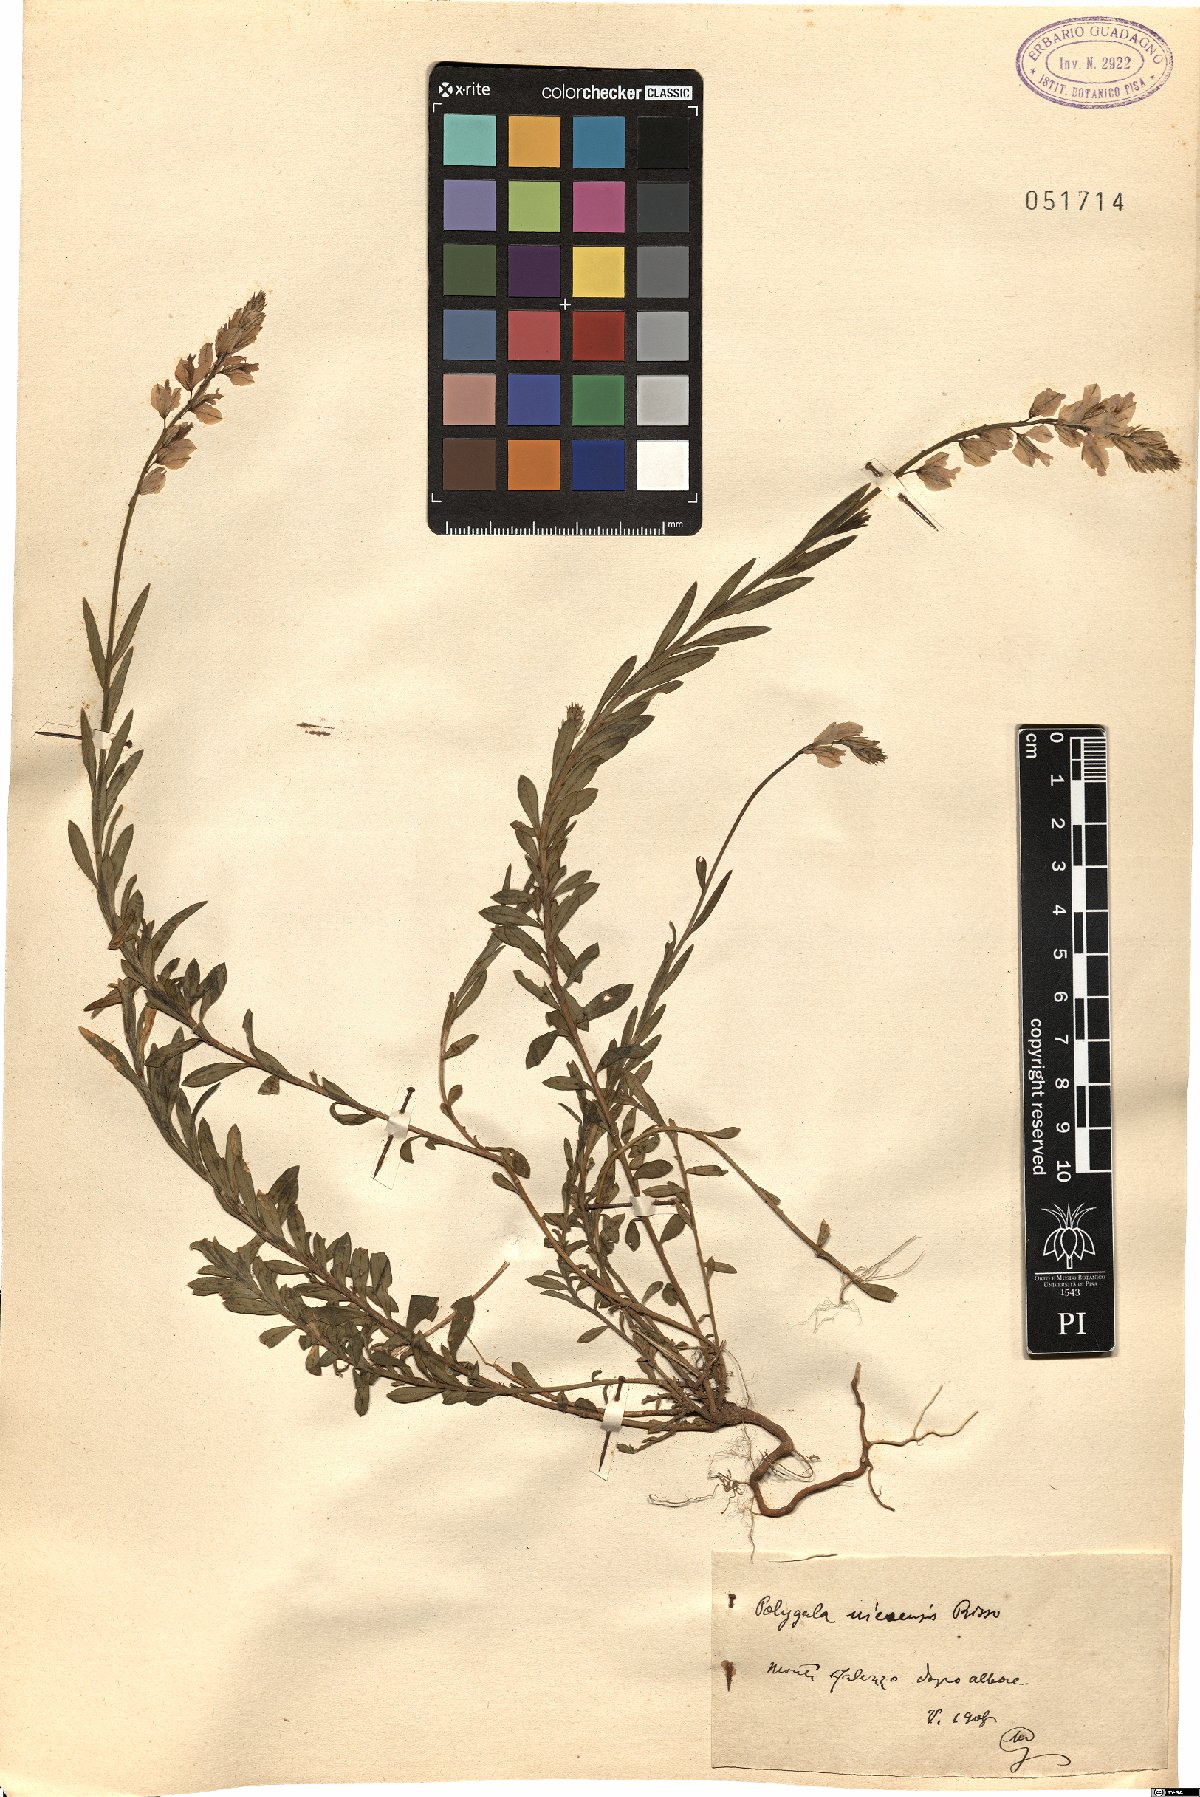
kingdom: Plantae
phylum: Tracheophyta
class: Magnoliopsida
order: Fabales
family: Polygalaceae
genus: Polygala
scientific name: Polygala nicaeensis
